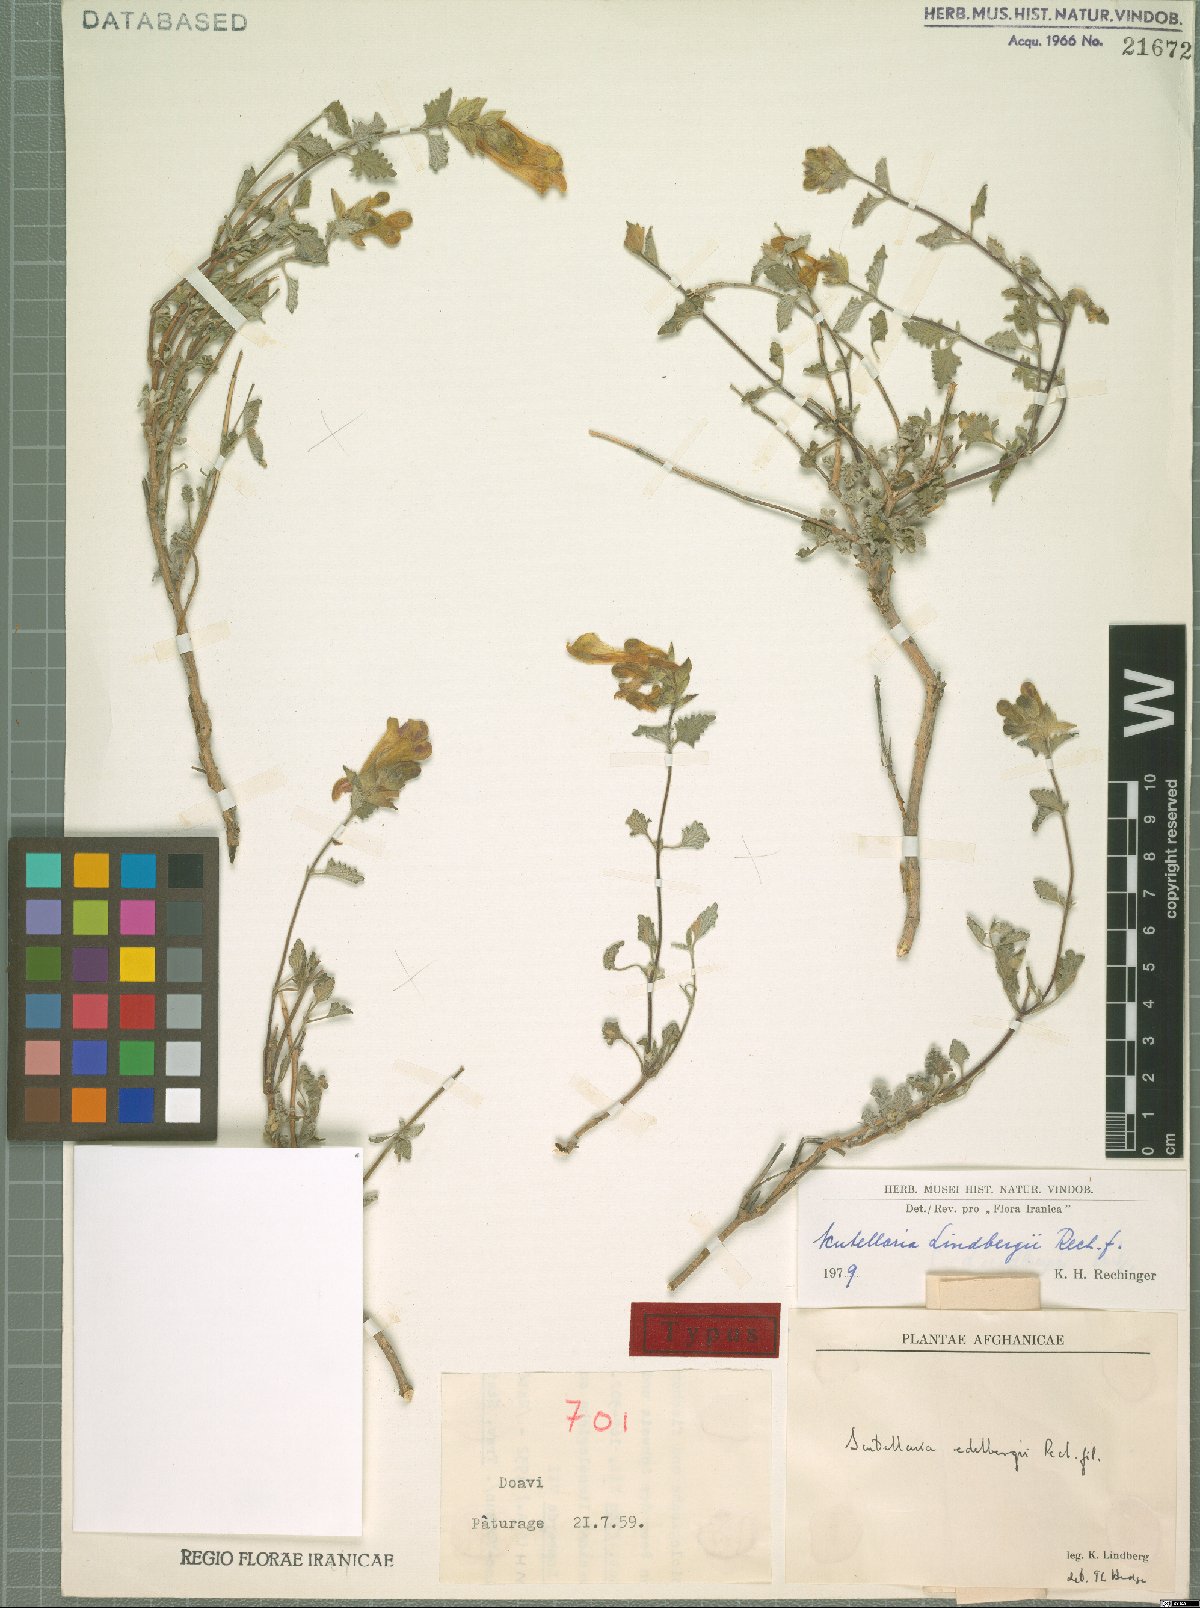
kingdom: Plantae
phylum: Tracheophyta
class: Magnoliopsida
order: Lamiales
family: Lamiaceae
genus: Scutellaria
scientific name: Scutellaria lindbergii
